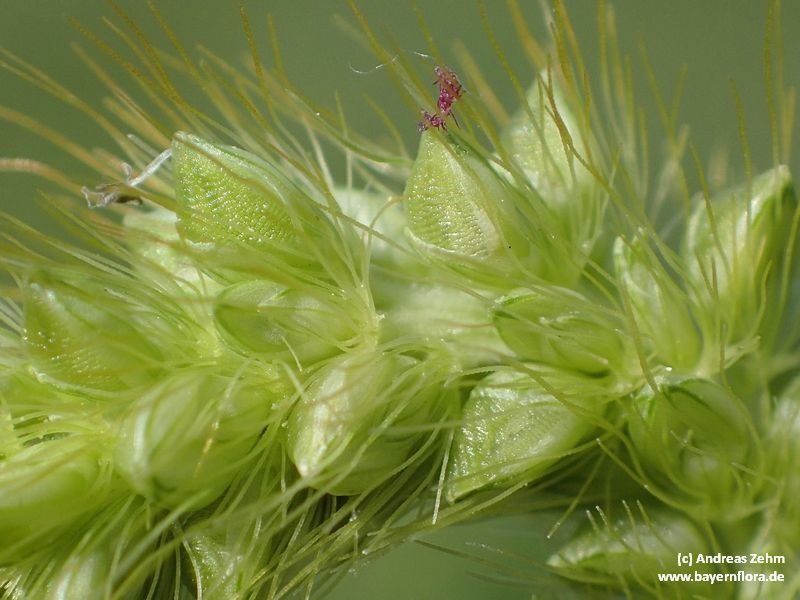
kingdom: Plantae
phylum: Tracheophyta
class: Liliopsida
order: Poales
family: Poaceae
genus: Setaria
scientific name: Setaria pumila
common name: Yellow bristle-grass
